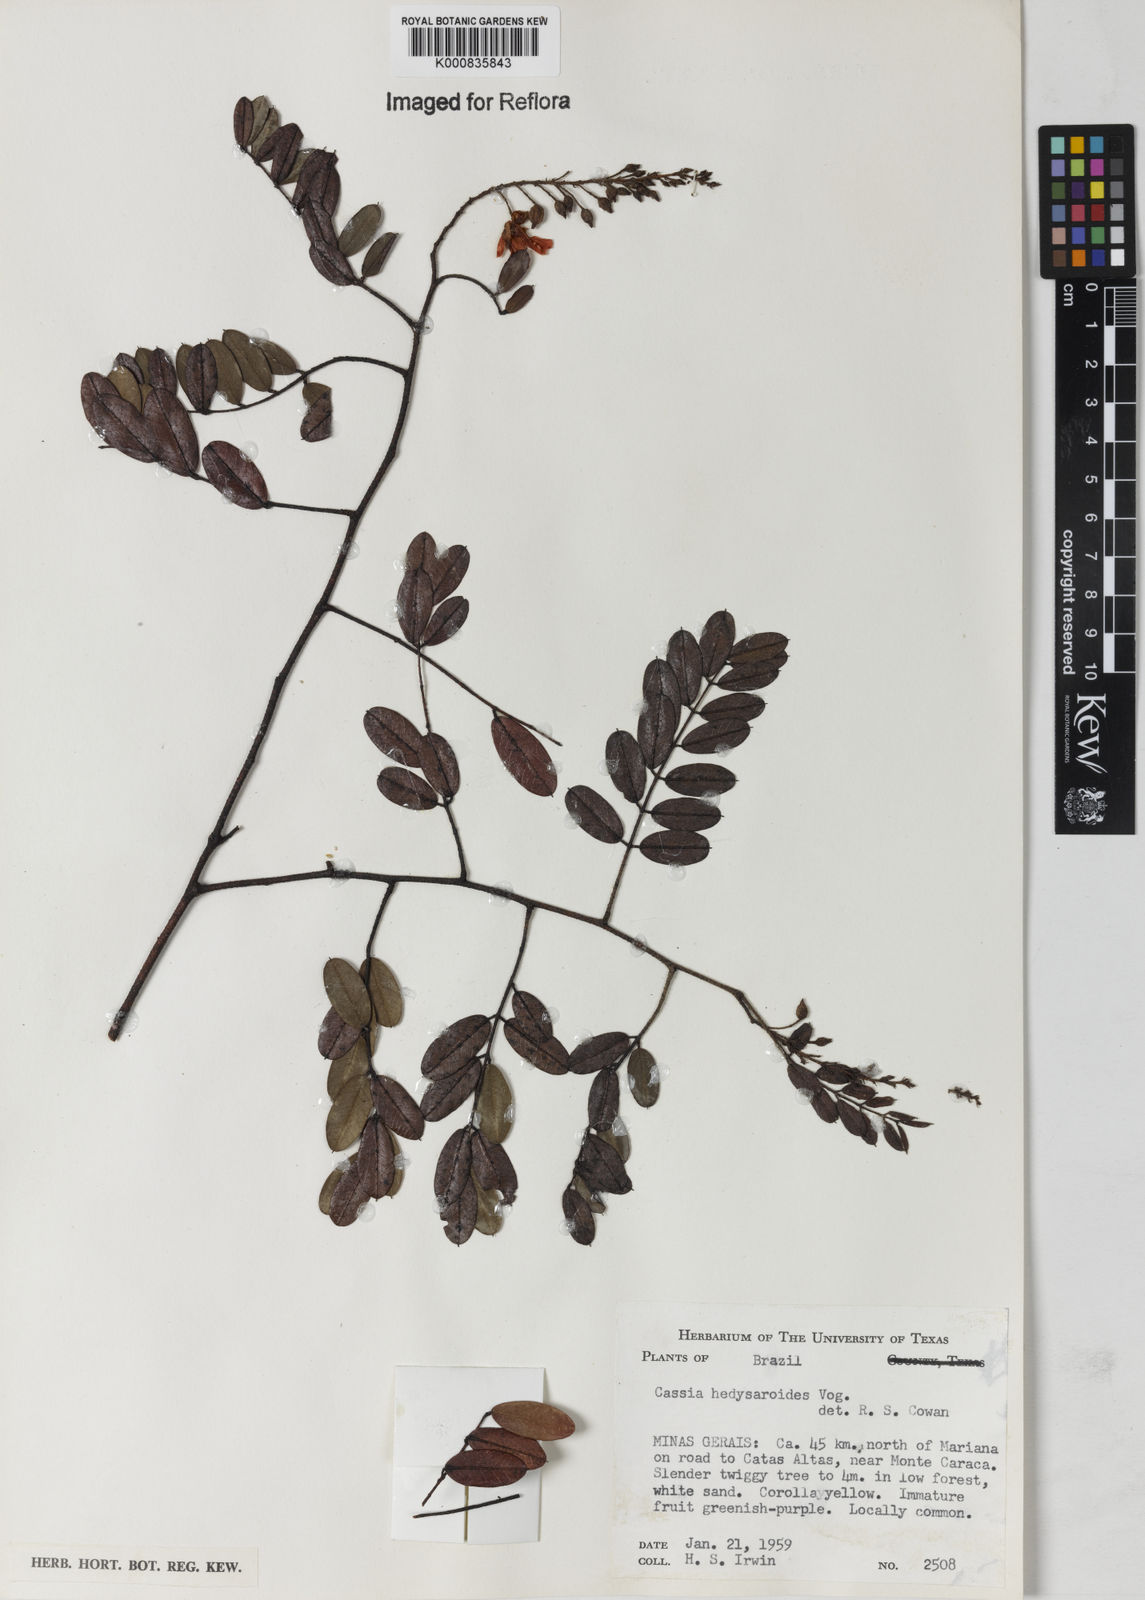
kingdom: Plantae
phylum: Tracheophyta
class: Magnoliopsida
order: Fabales
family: Fabaceae
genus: Chamaecrista
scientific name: Chamaecrista hedysaroides
